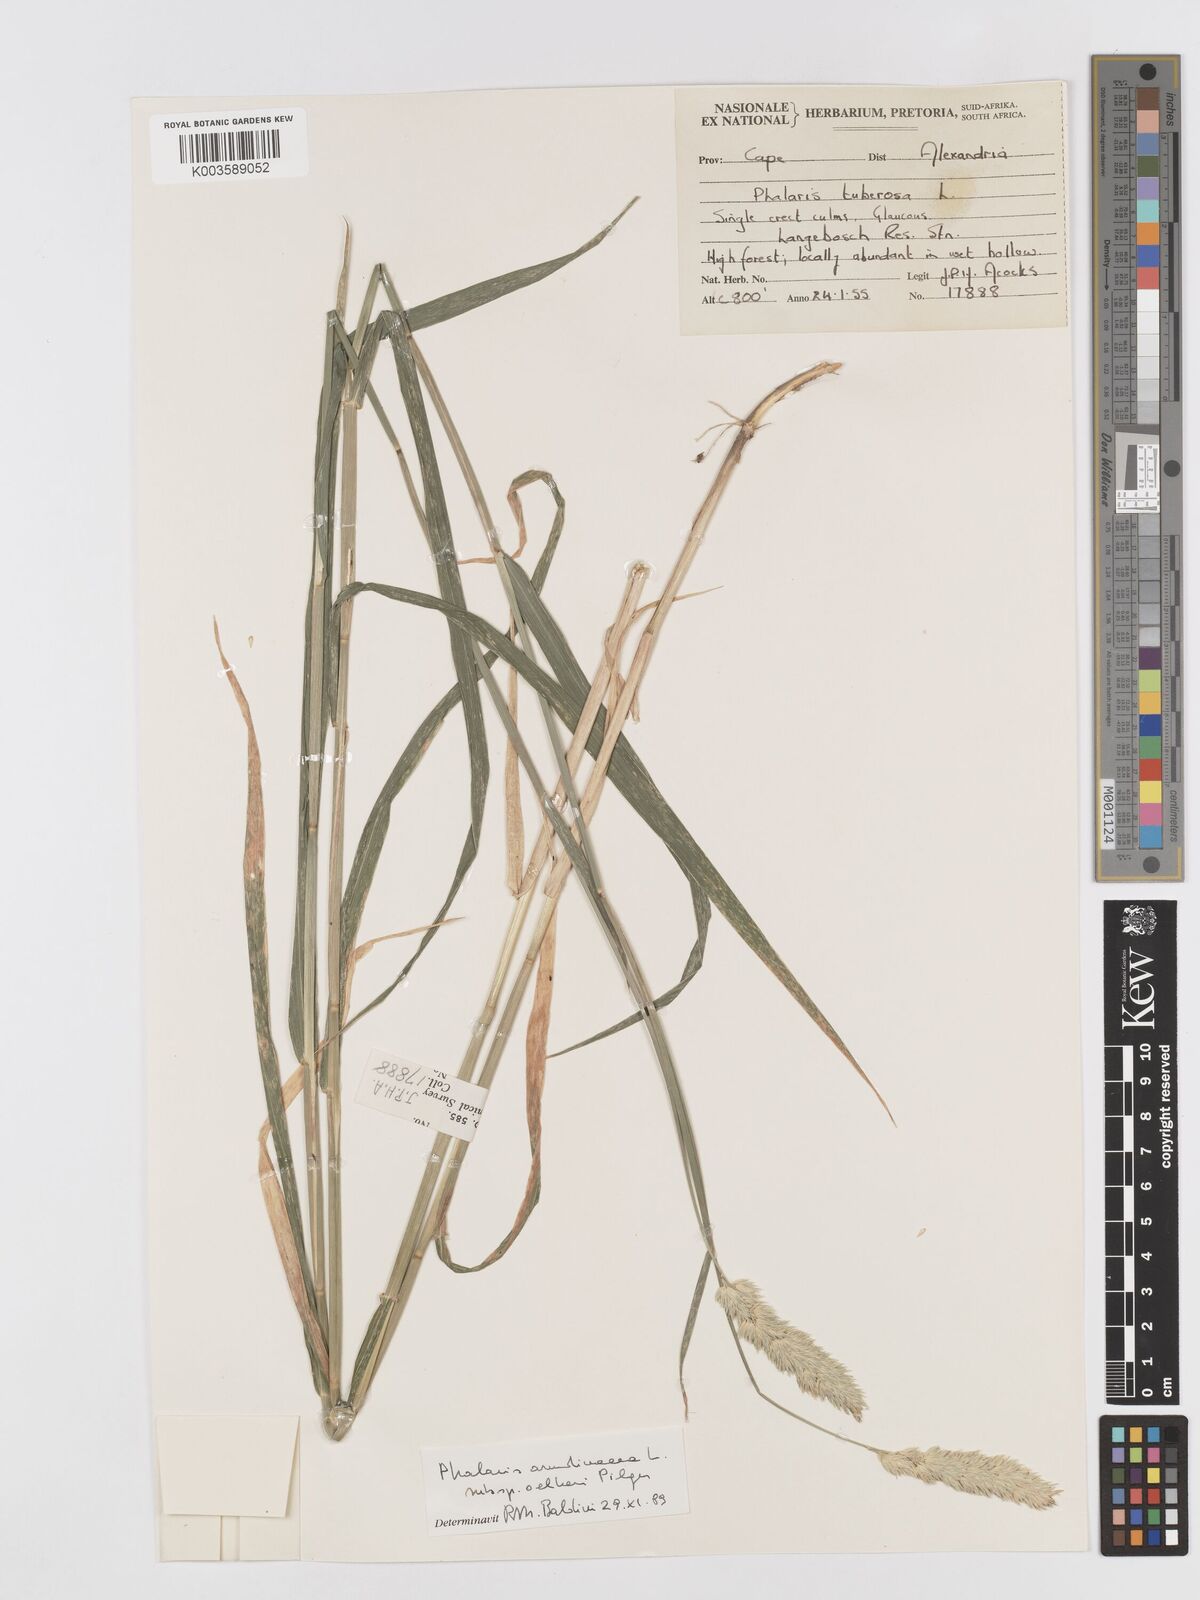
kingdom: Plantae
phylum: Tracheophyta
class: Liliopsida
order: Poales
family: Poaceae
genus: Phalaris
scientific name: Phalaris arundinacea
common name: Reed canary-grass
